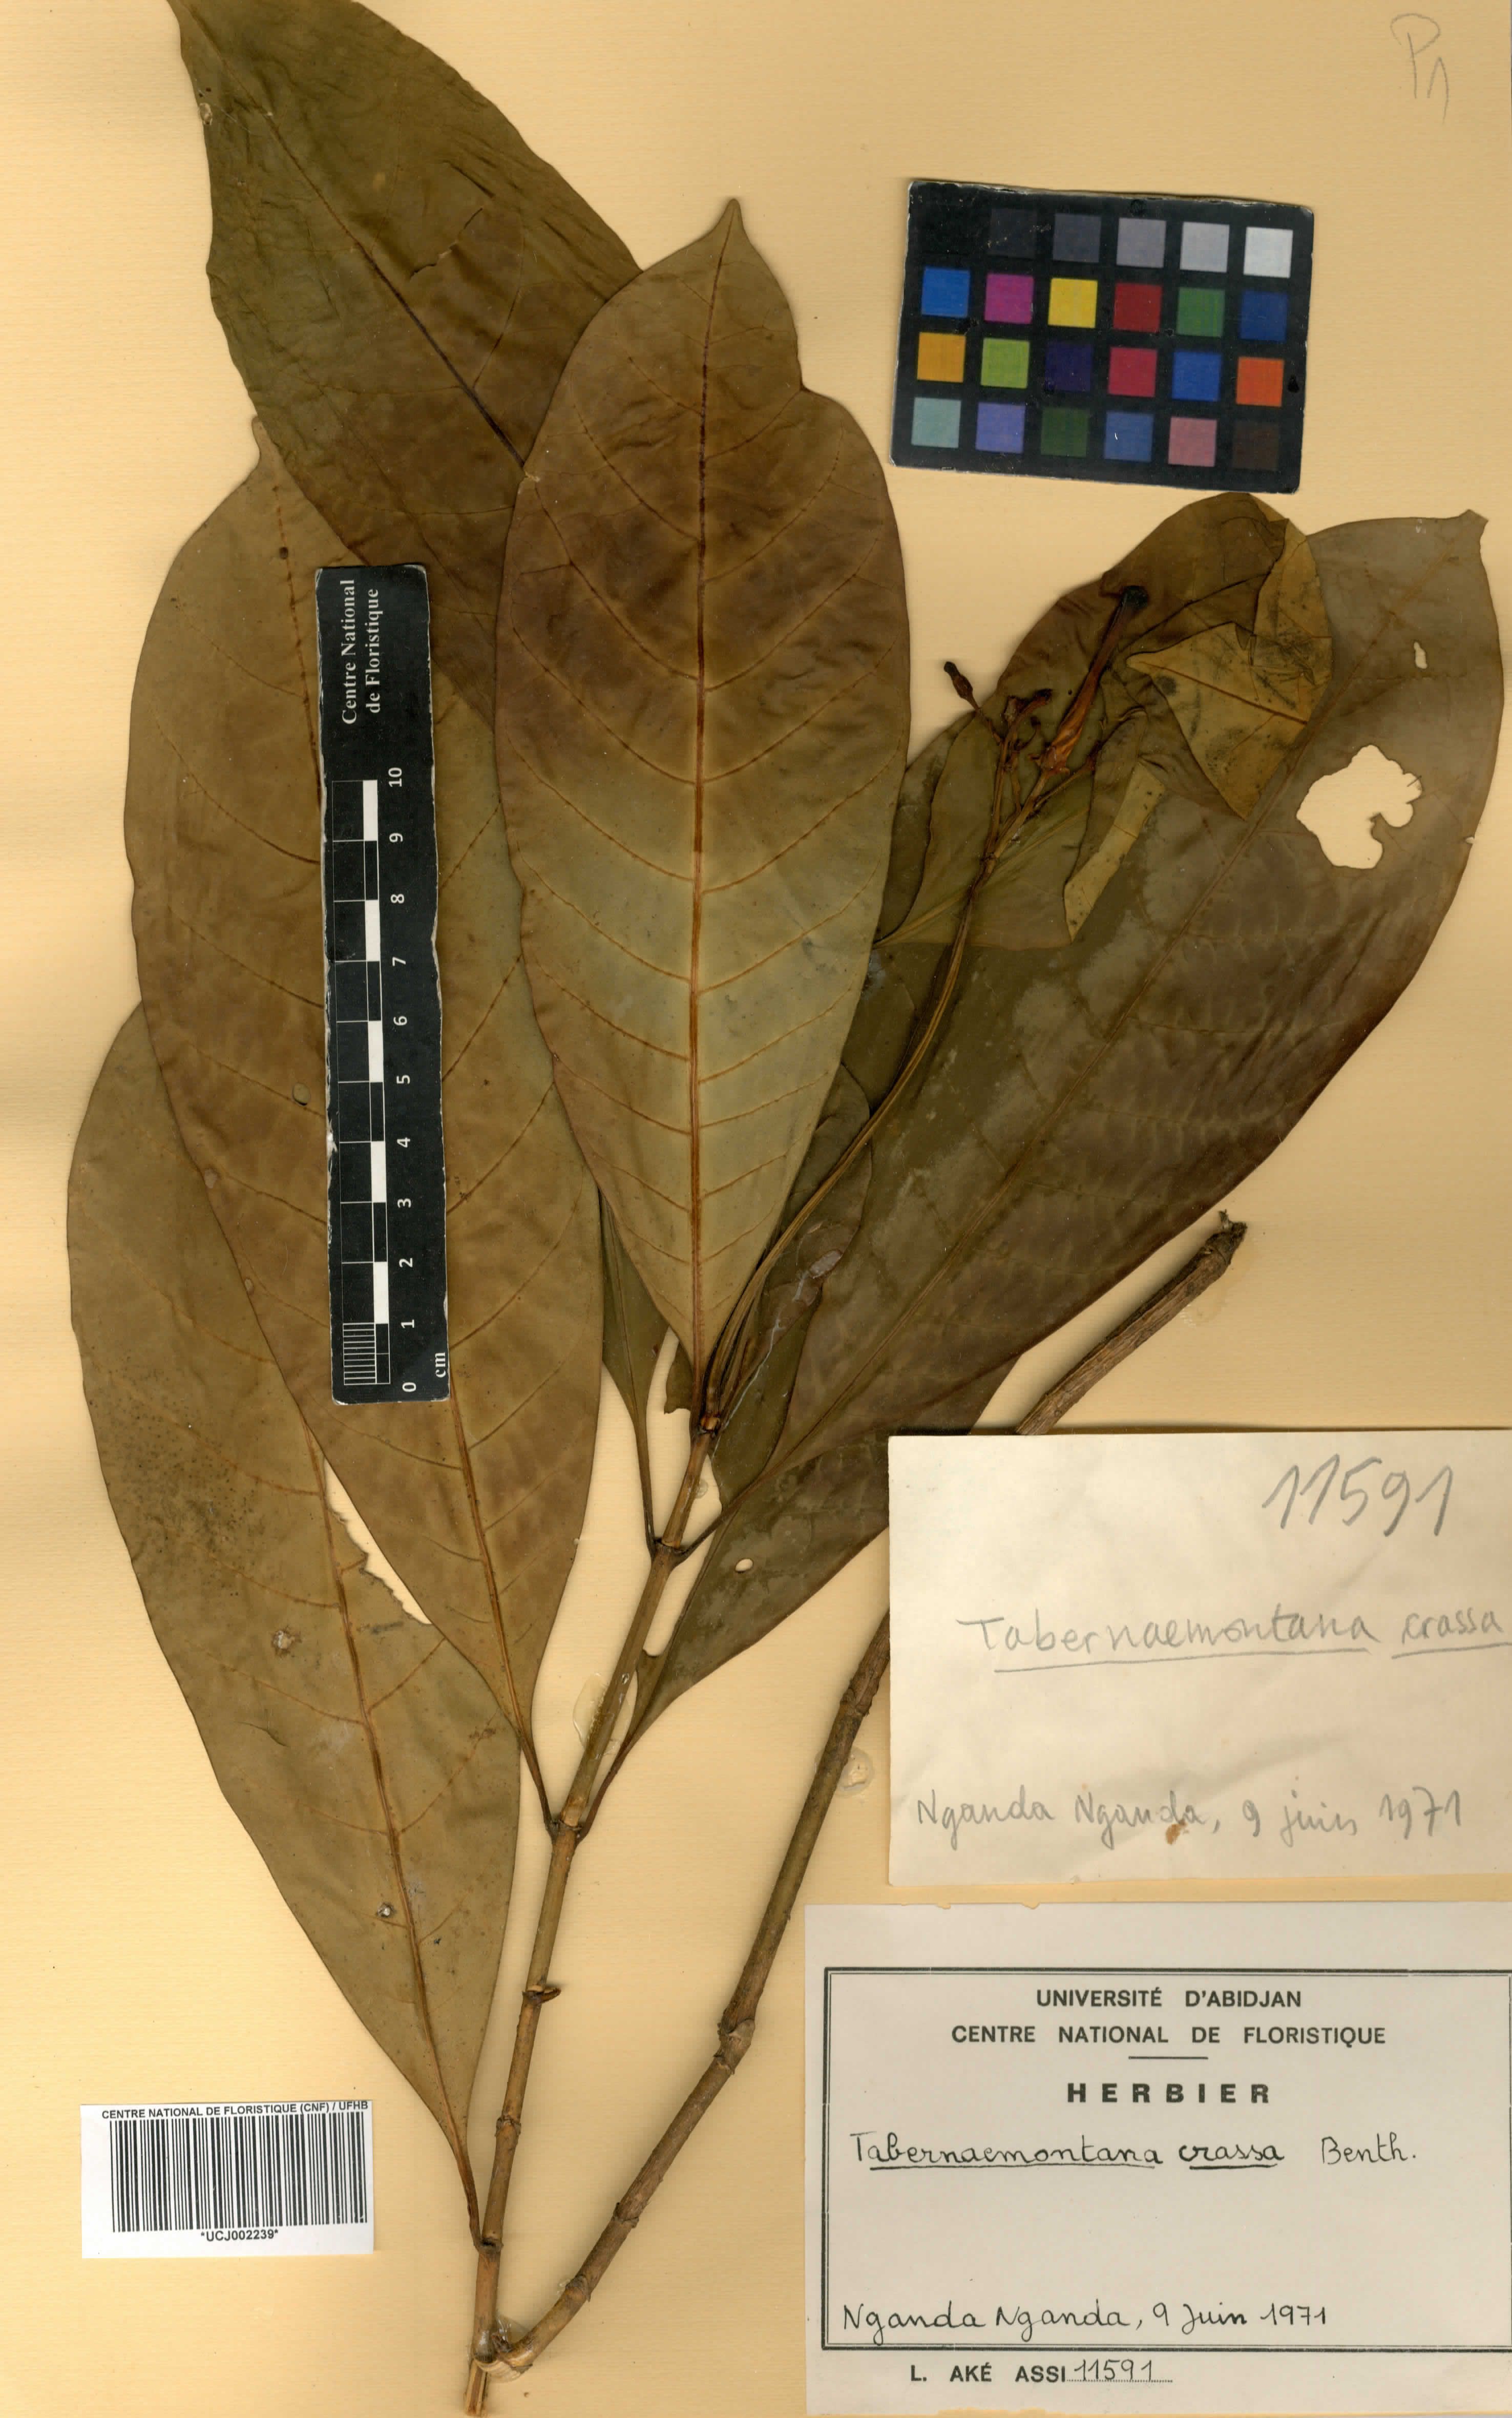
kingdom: Plantae
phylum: Tracheophyta
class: Magnoliopsida
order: Gentianales
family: Apocynaceae
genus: Tabernaemontana
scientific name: Tabernaemontana crassa
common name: Adam's-apple-flower
